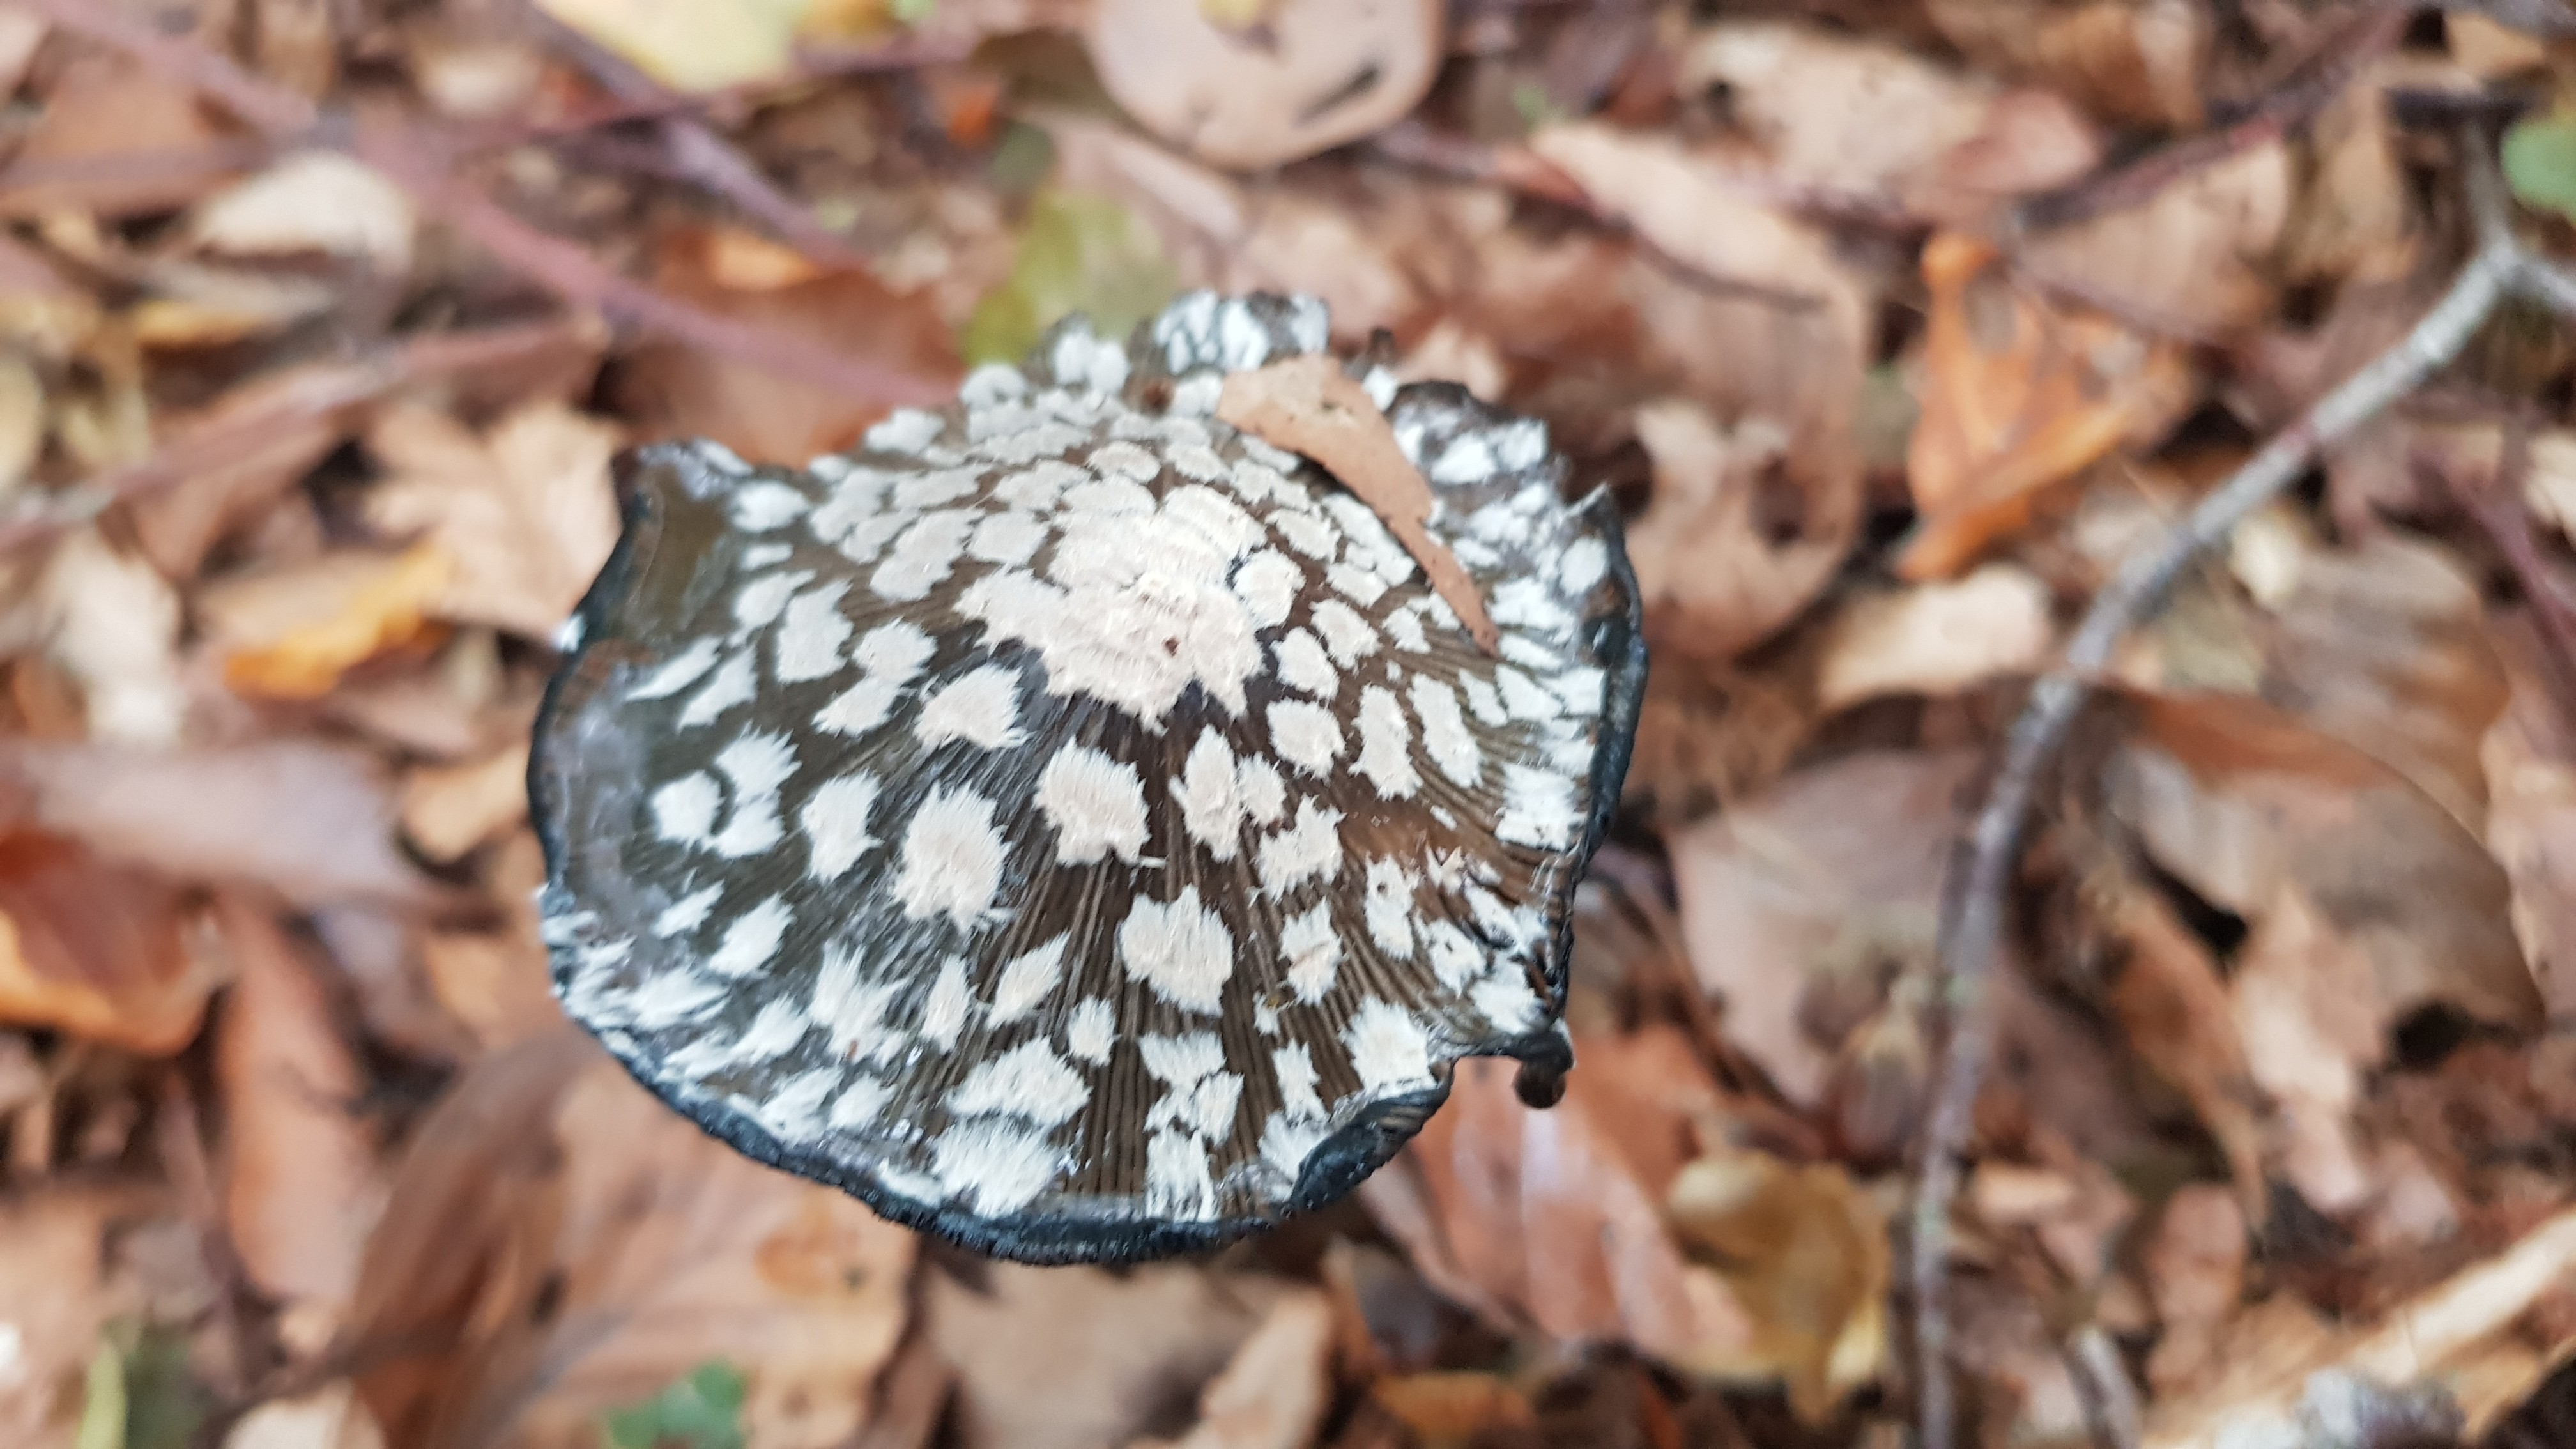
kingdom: Fungi
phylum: Basidiomycota
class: Agaricomycetes
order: Agaricales
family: Psathyrellaceae
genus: Coprinopsis
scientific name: Coprinopsis picacea
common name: skade-blækhat
